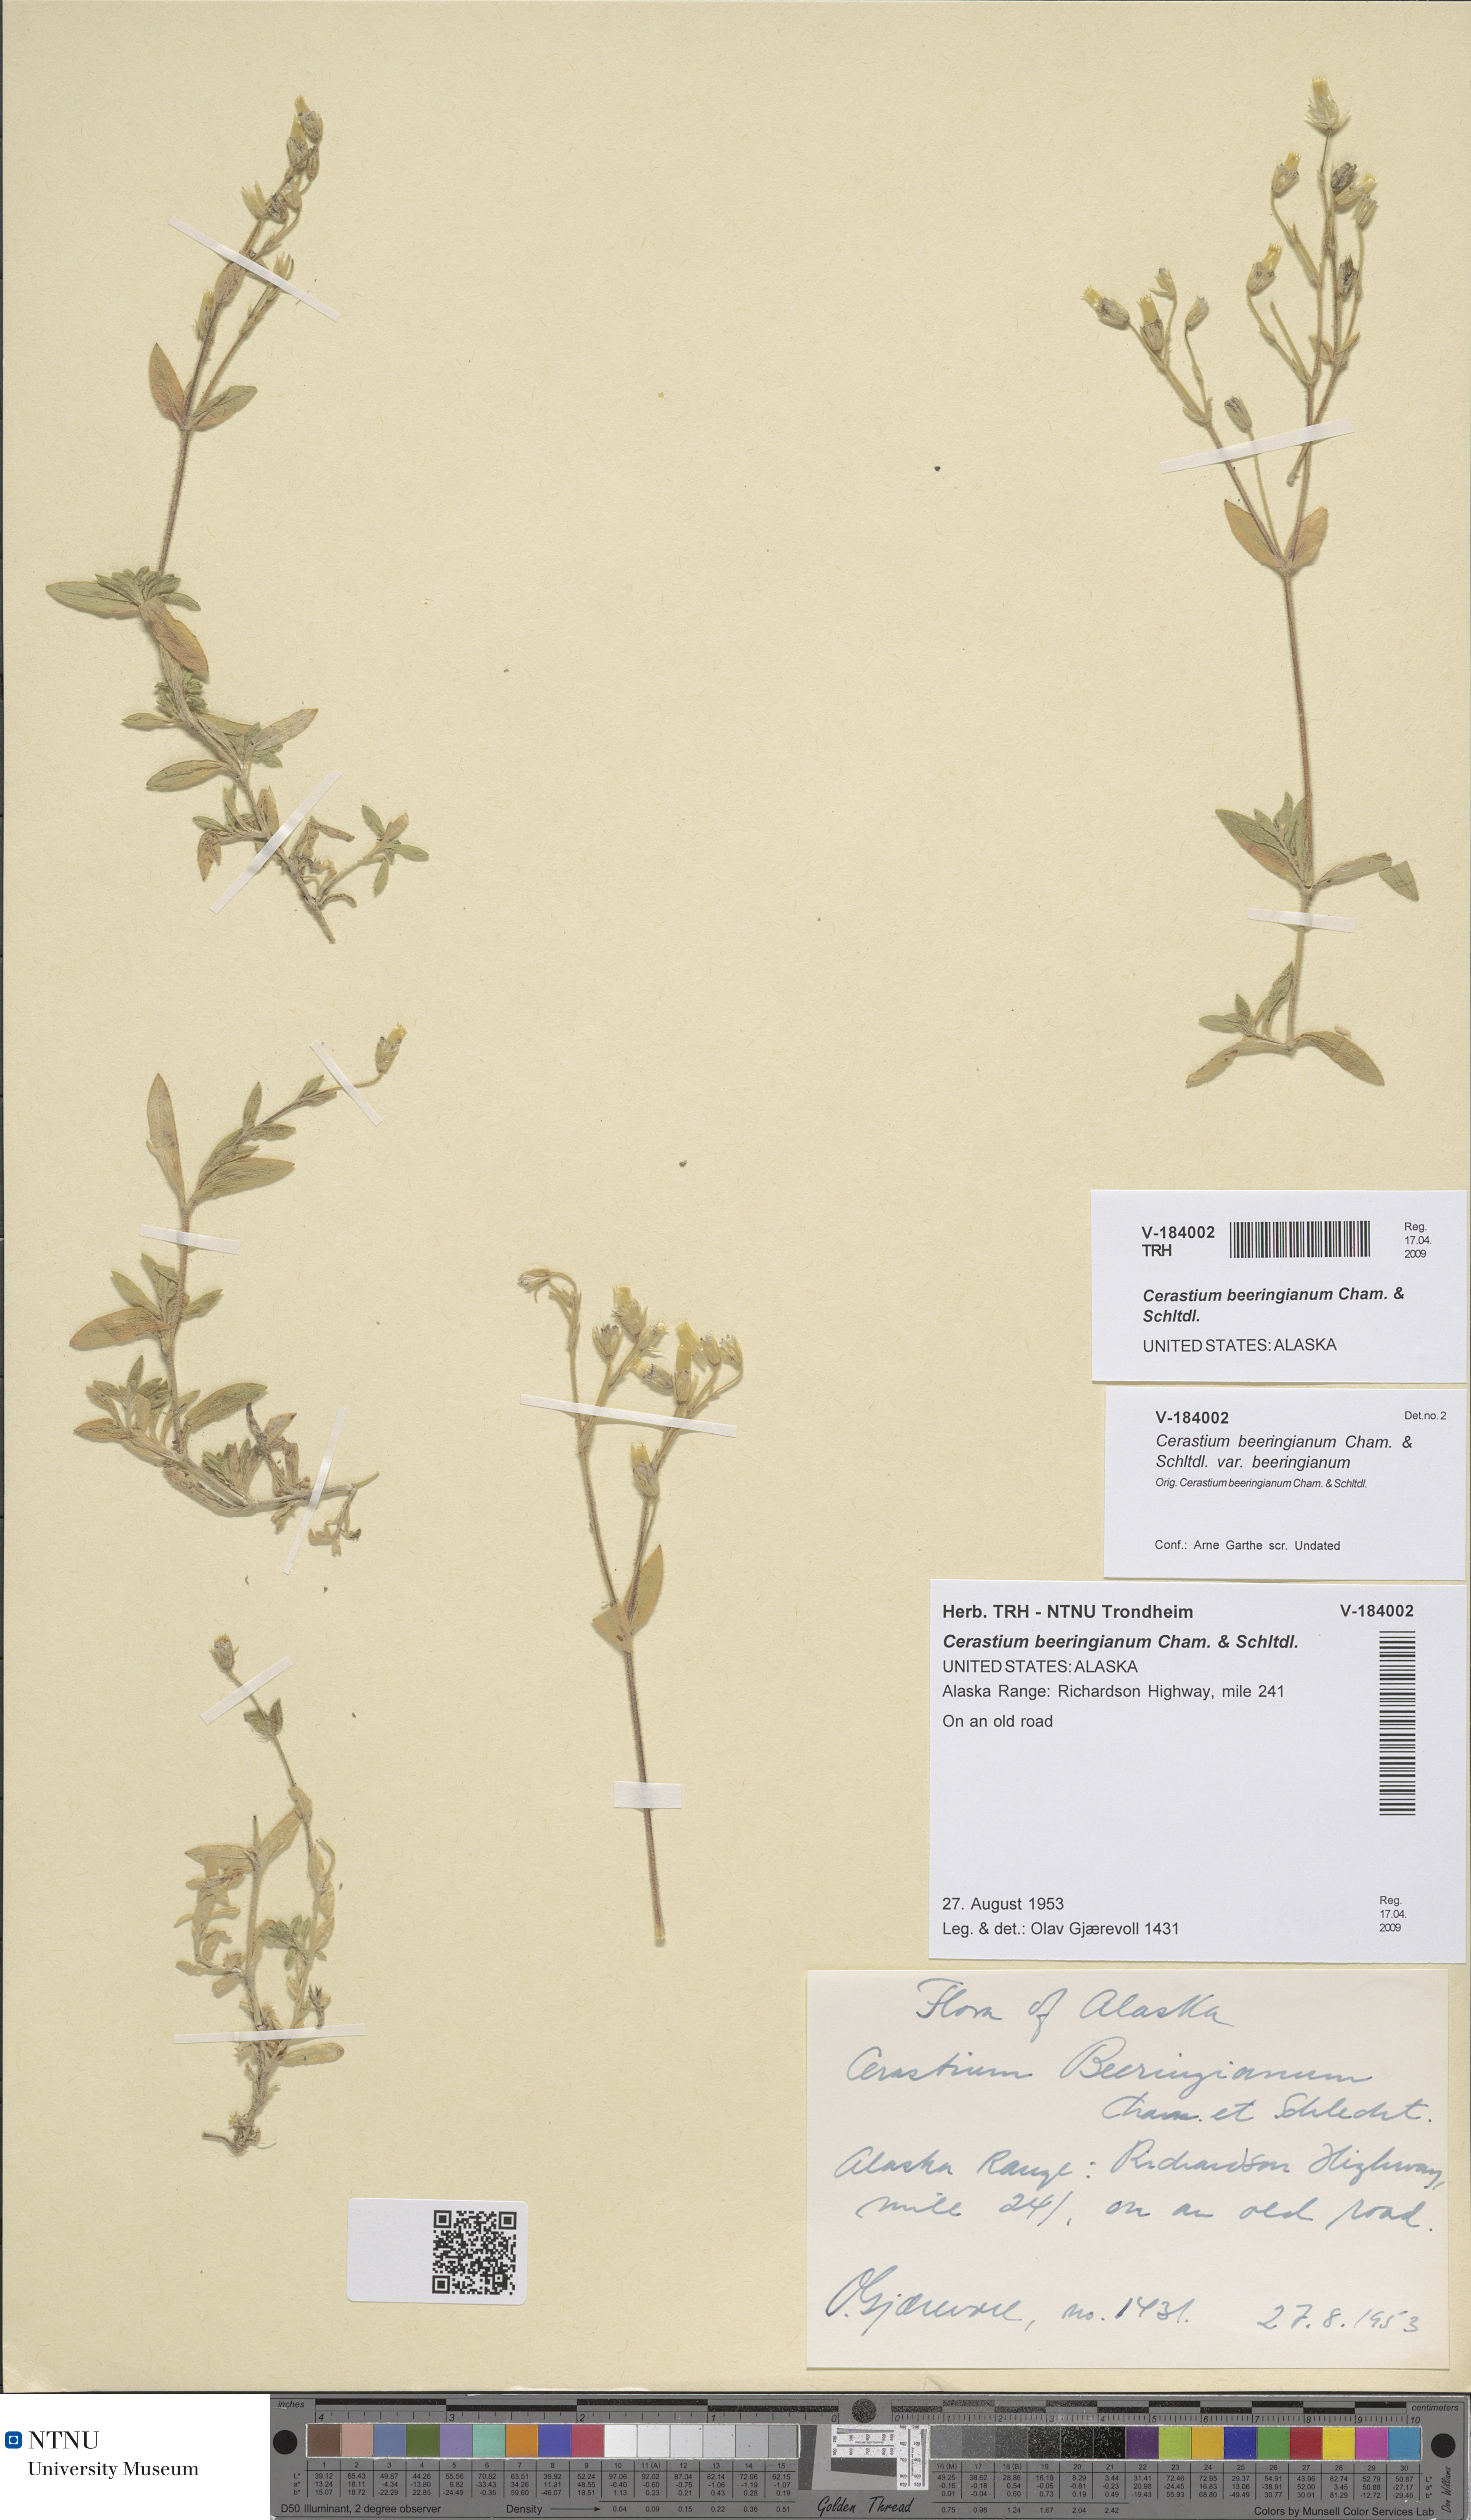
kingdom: Plantae
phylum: Tracheophyta
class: Magnoliopsida
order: Caryophyllales
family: Caryophyllaceae
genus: Cerastium
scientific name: Cerastium beeringianum
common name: Bering mouse-ear chickweed
